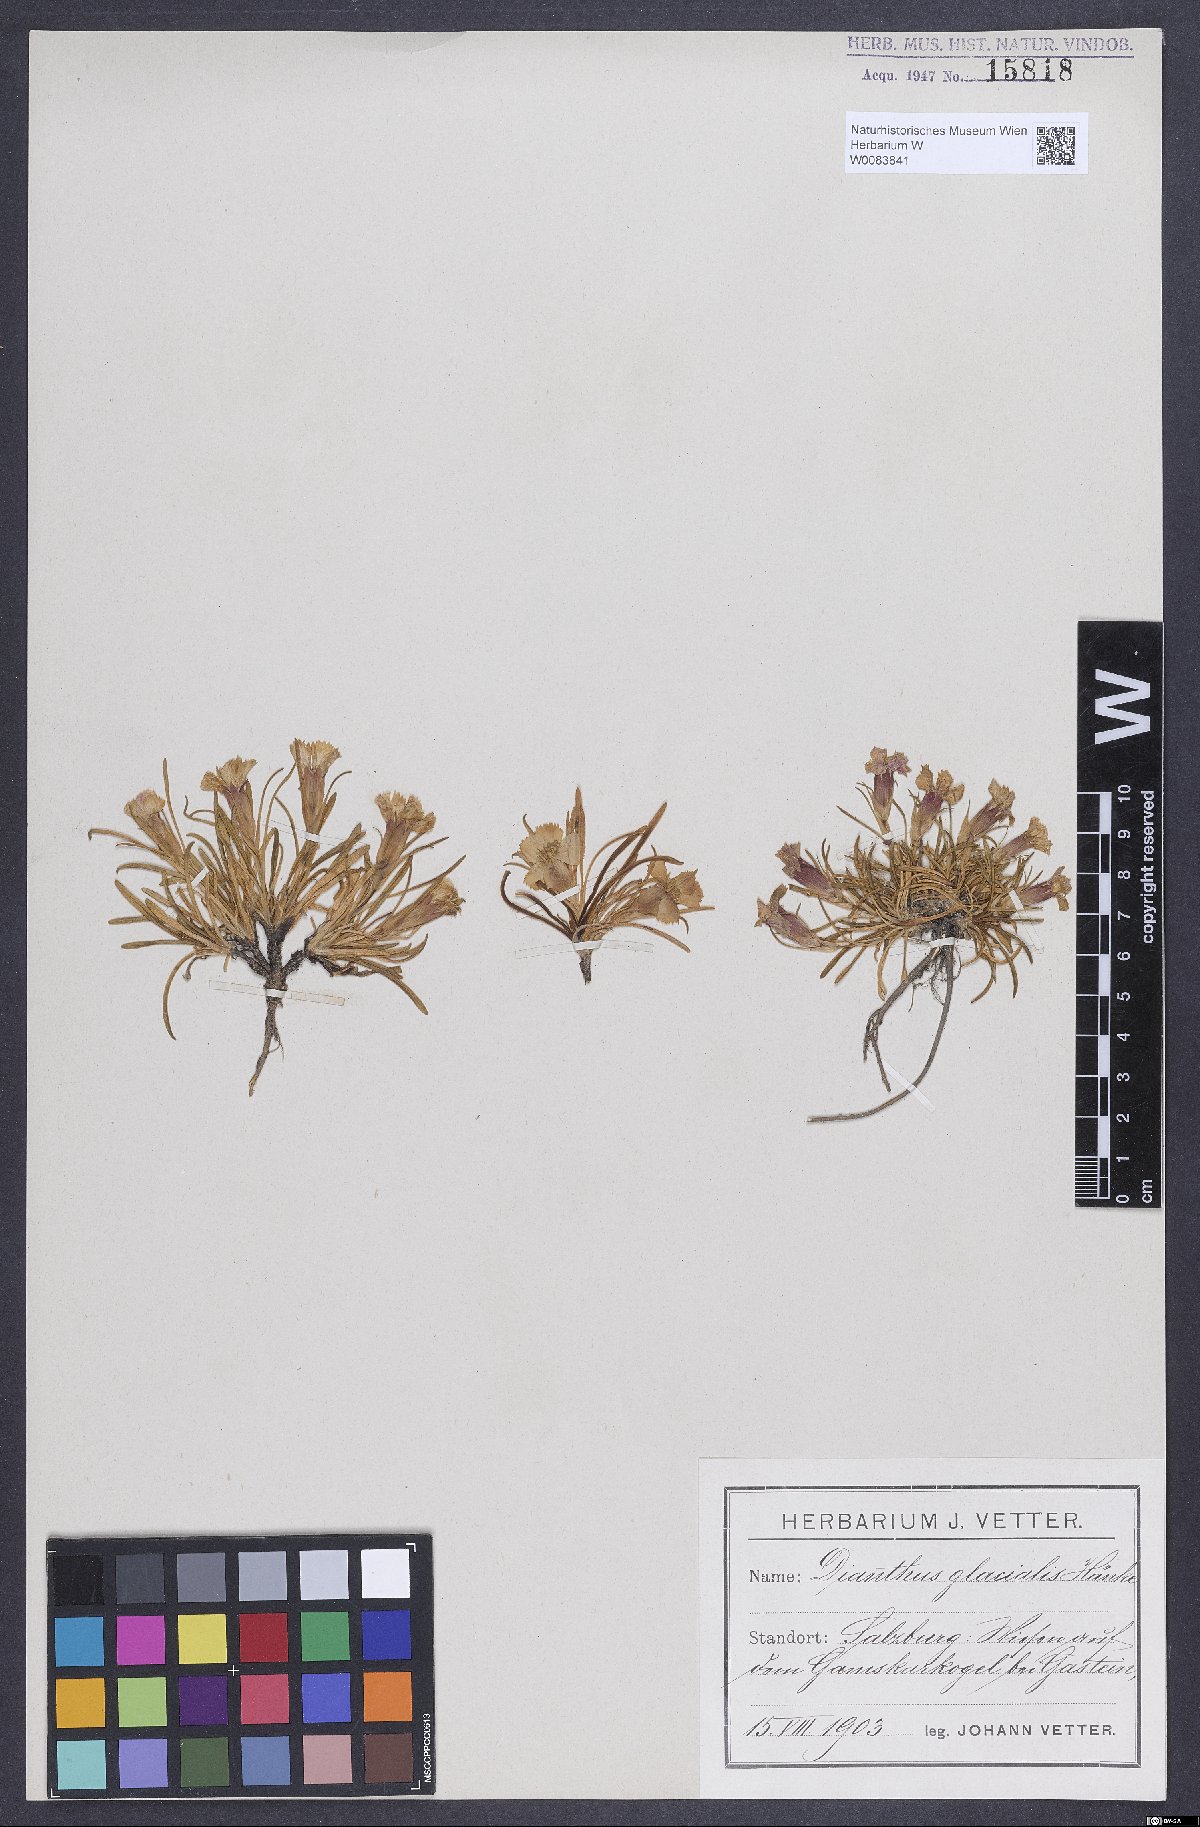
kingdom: Plantae
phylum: Tracheophyta
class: Magnoliopsida
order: Caryophyllales
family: Caryophyllaceae
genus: Dianthus
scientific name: Dianthus glacialis
